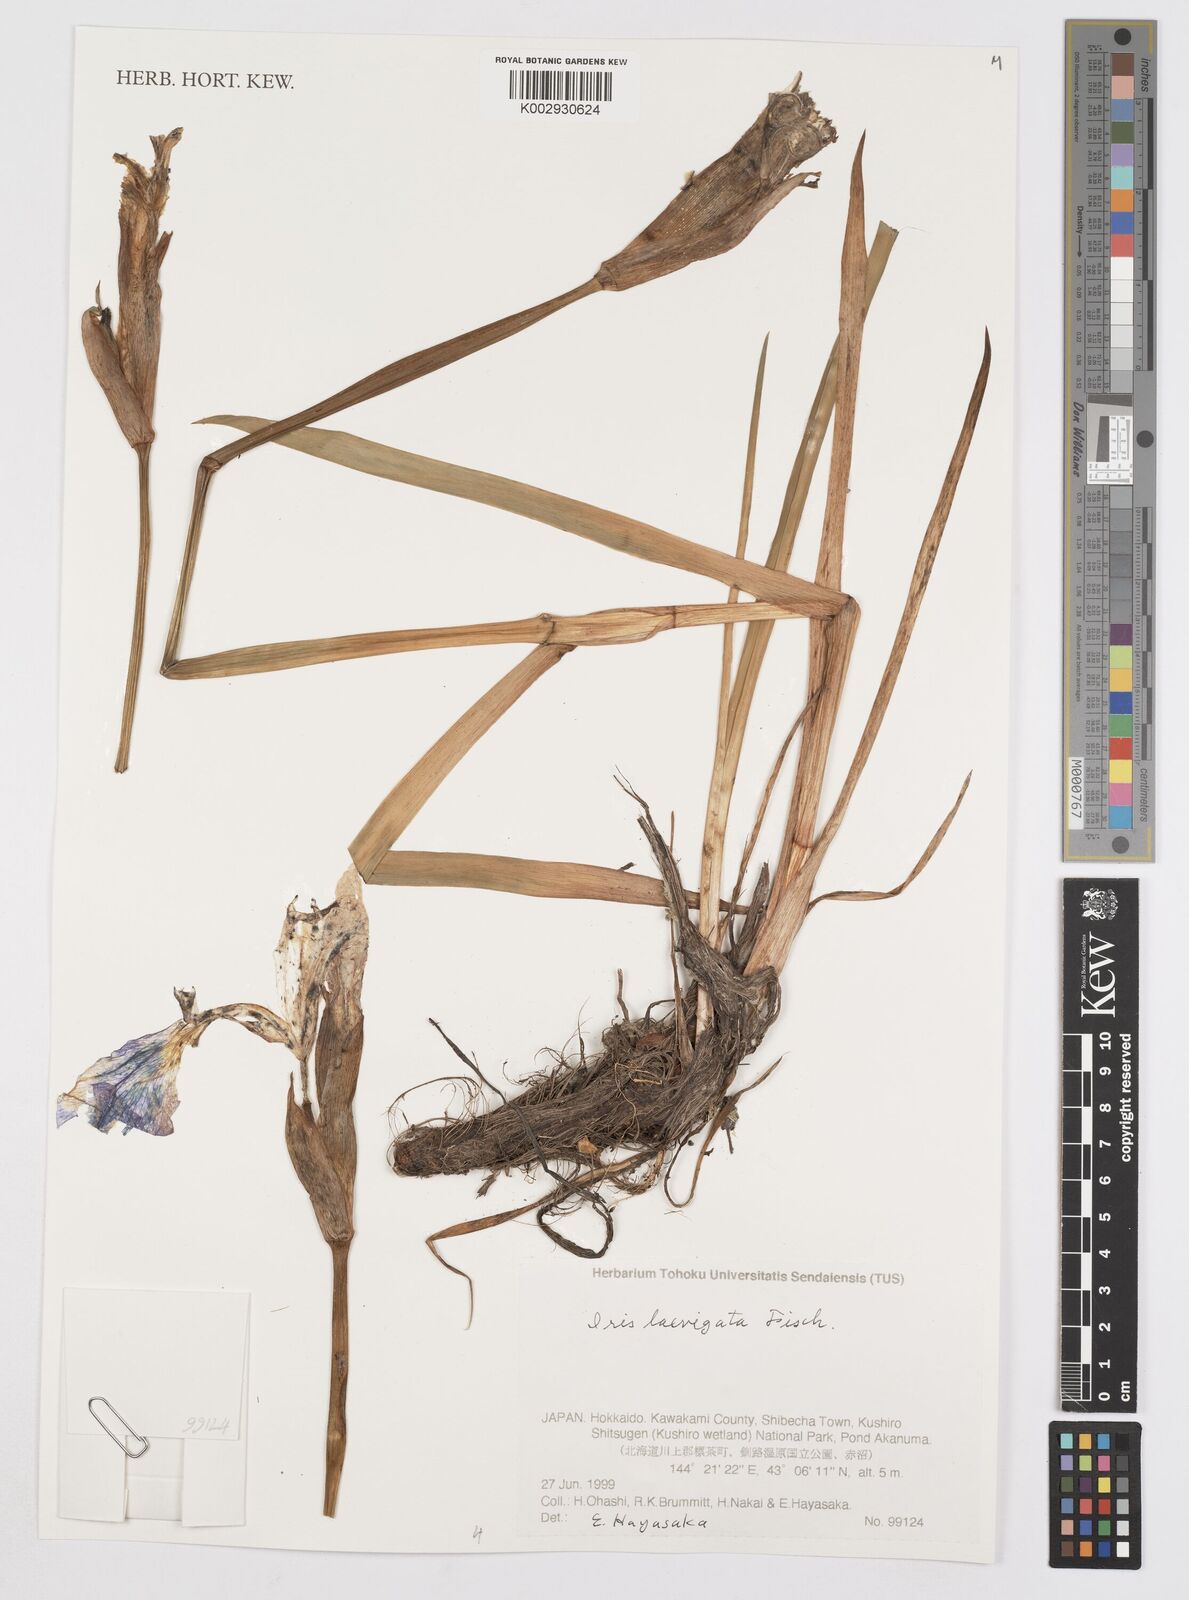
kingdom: Plantae
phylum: Tracheophyta
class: Liliopsida
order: Asparagales
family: Iridaceae
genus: Iris
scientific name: Iris laevigata
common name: Japanese iris
